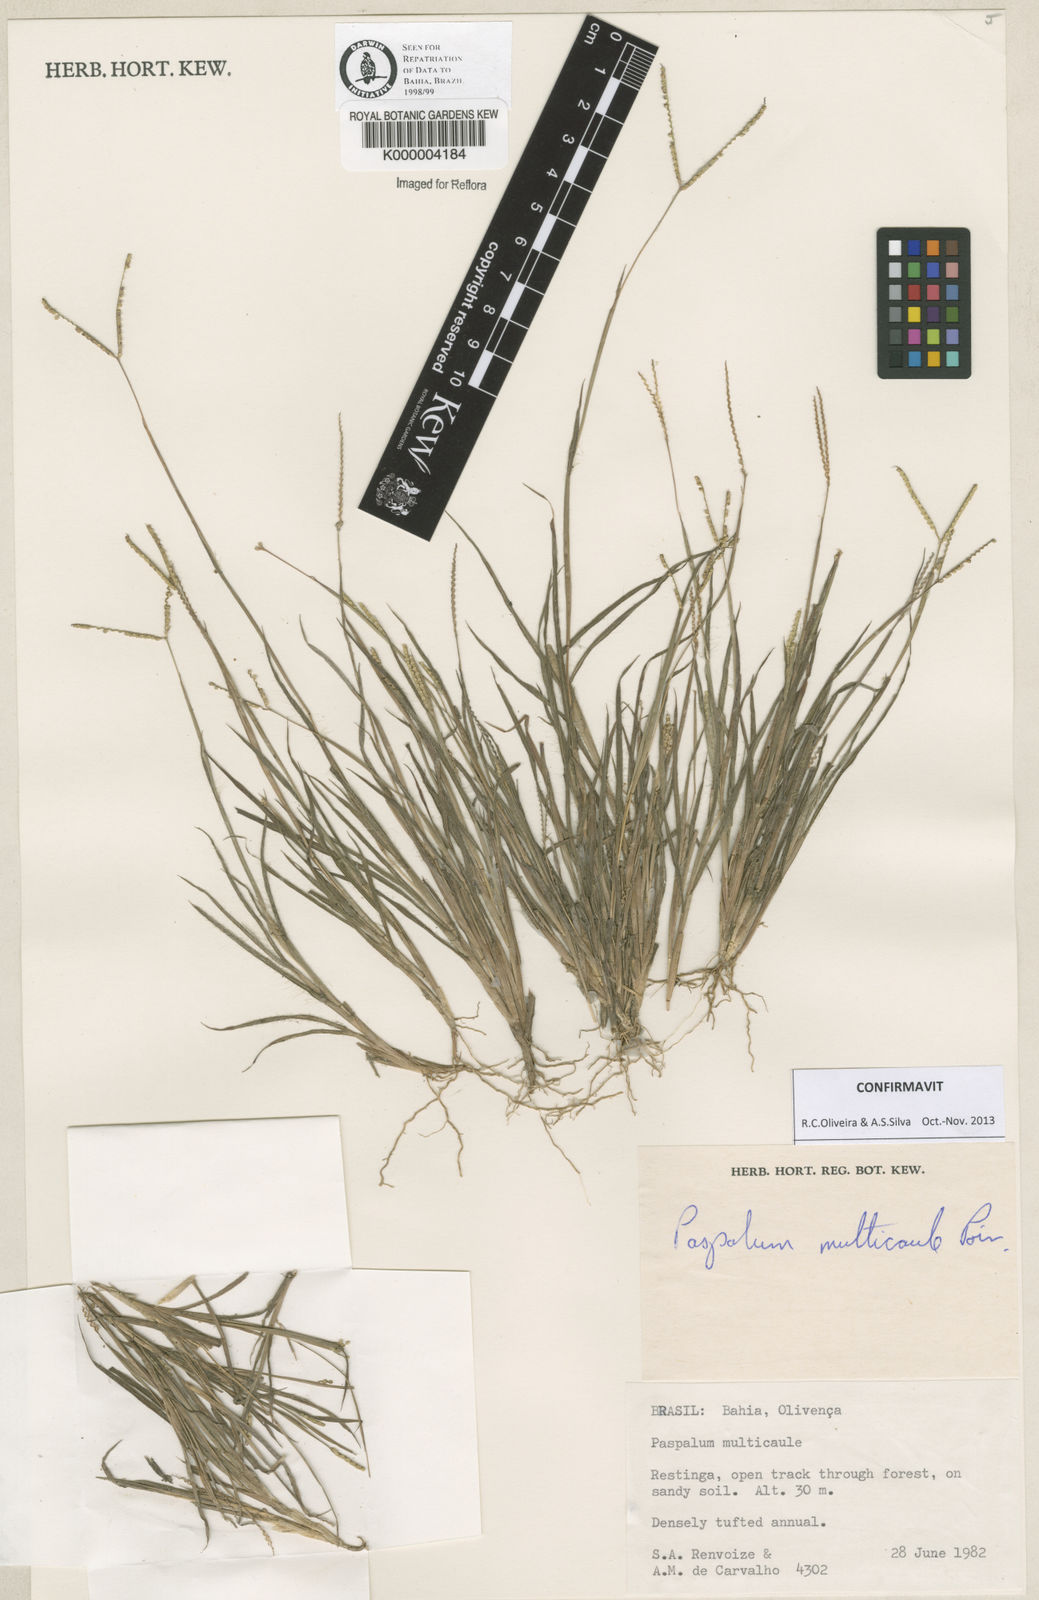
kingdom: Plantae
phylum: Tracheophyta
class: Liliopsida
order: Poales
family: Poaceae
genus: Paspalum
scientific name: Paspalum multicaule
